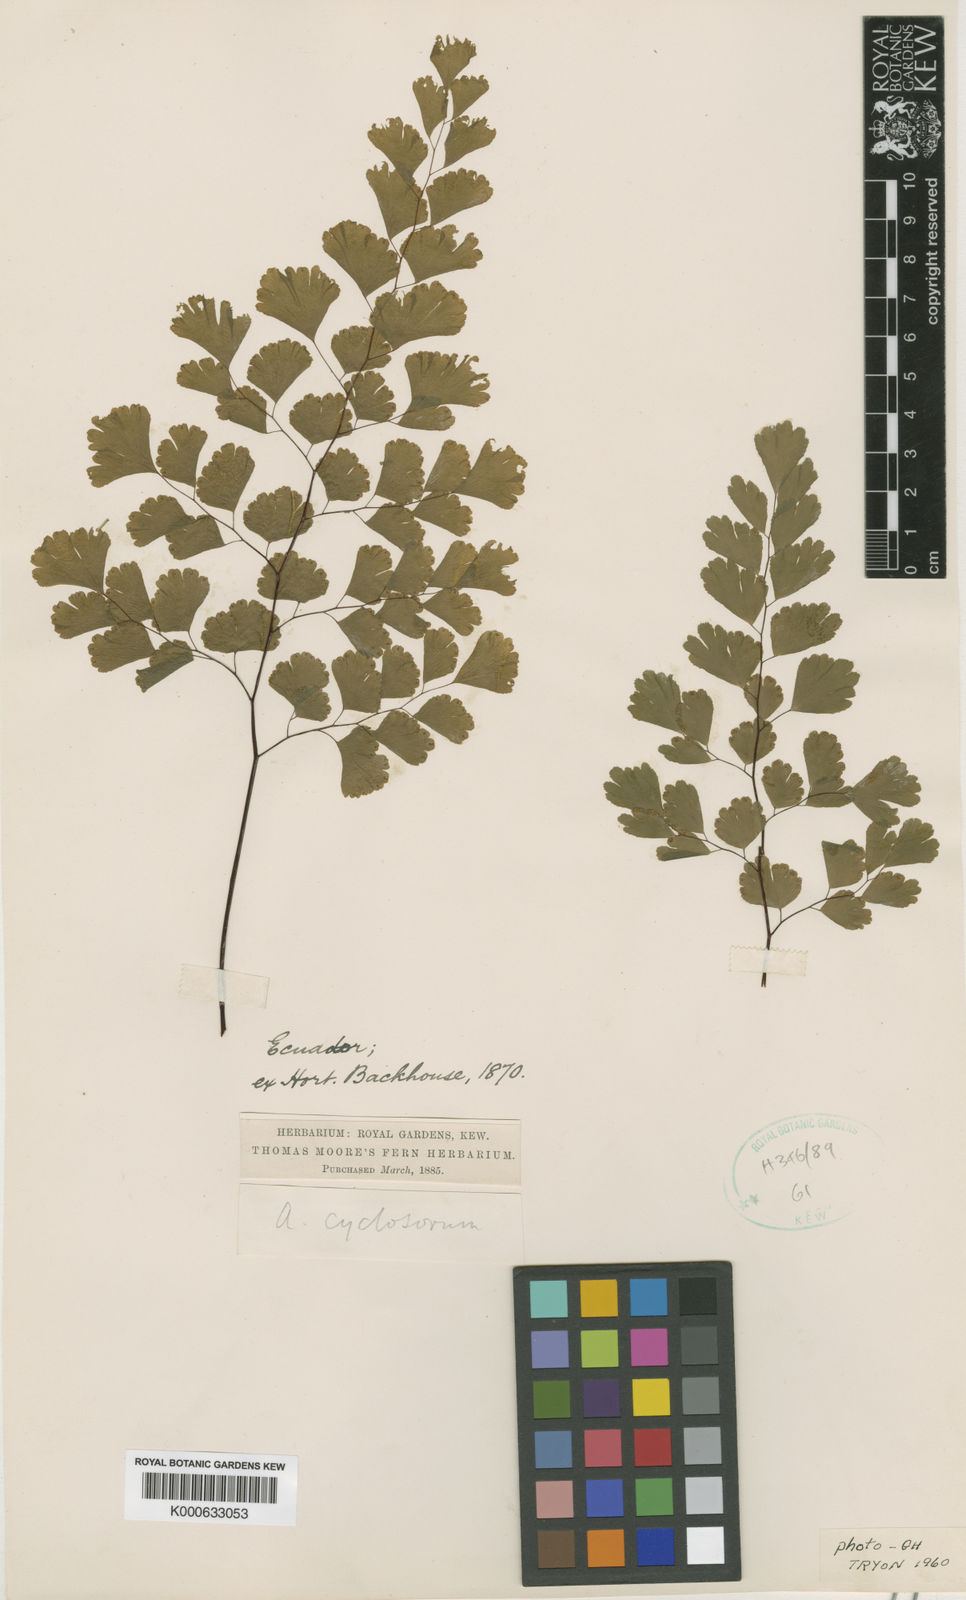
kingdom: Plantae
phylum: Tracheophyta
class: Polypodiopsida
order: Polypodiales
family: Pteridaceae
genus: Adiantum
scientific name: Adiantum raddianum
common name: Delta maidenhair fern
